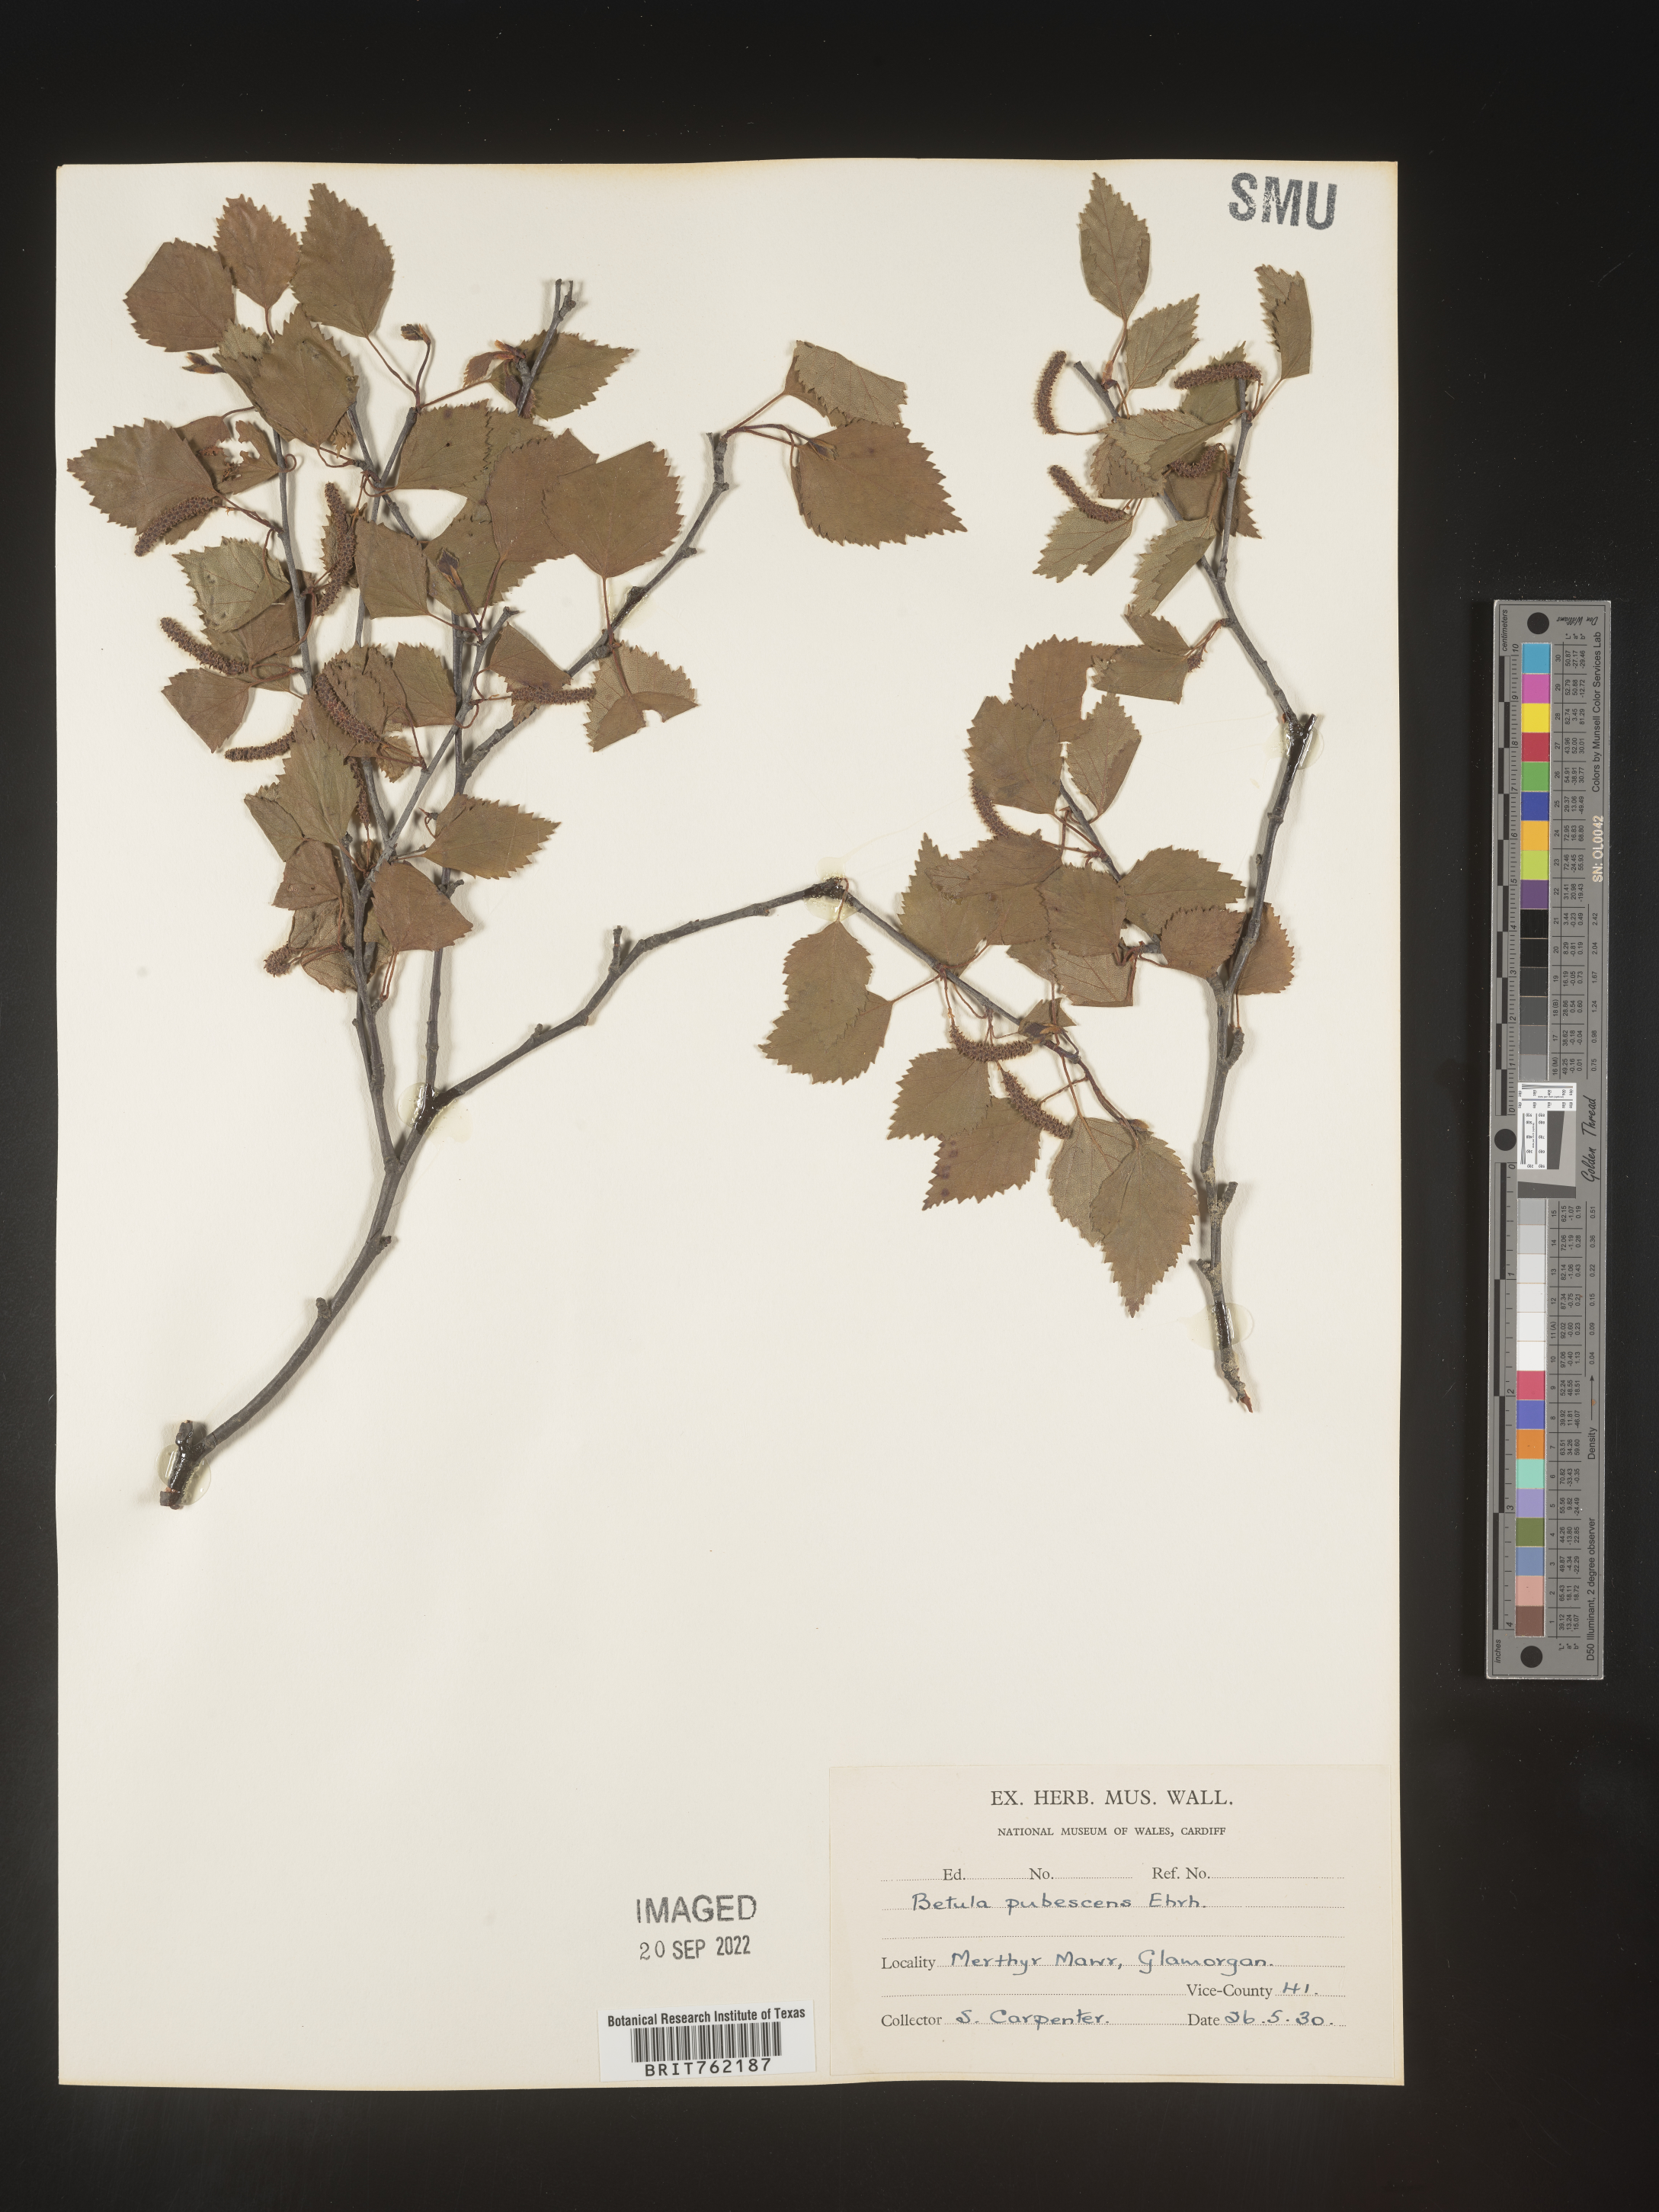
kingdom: Plantae
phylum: Tracheophyta
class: Magnoliopsida
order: Fagales
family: Betulaceae
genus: Betula
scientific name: Betula
